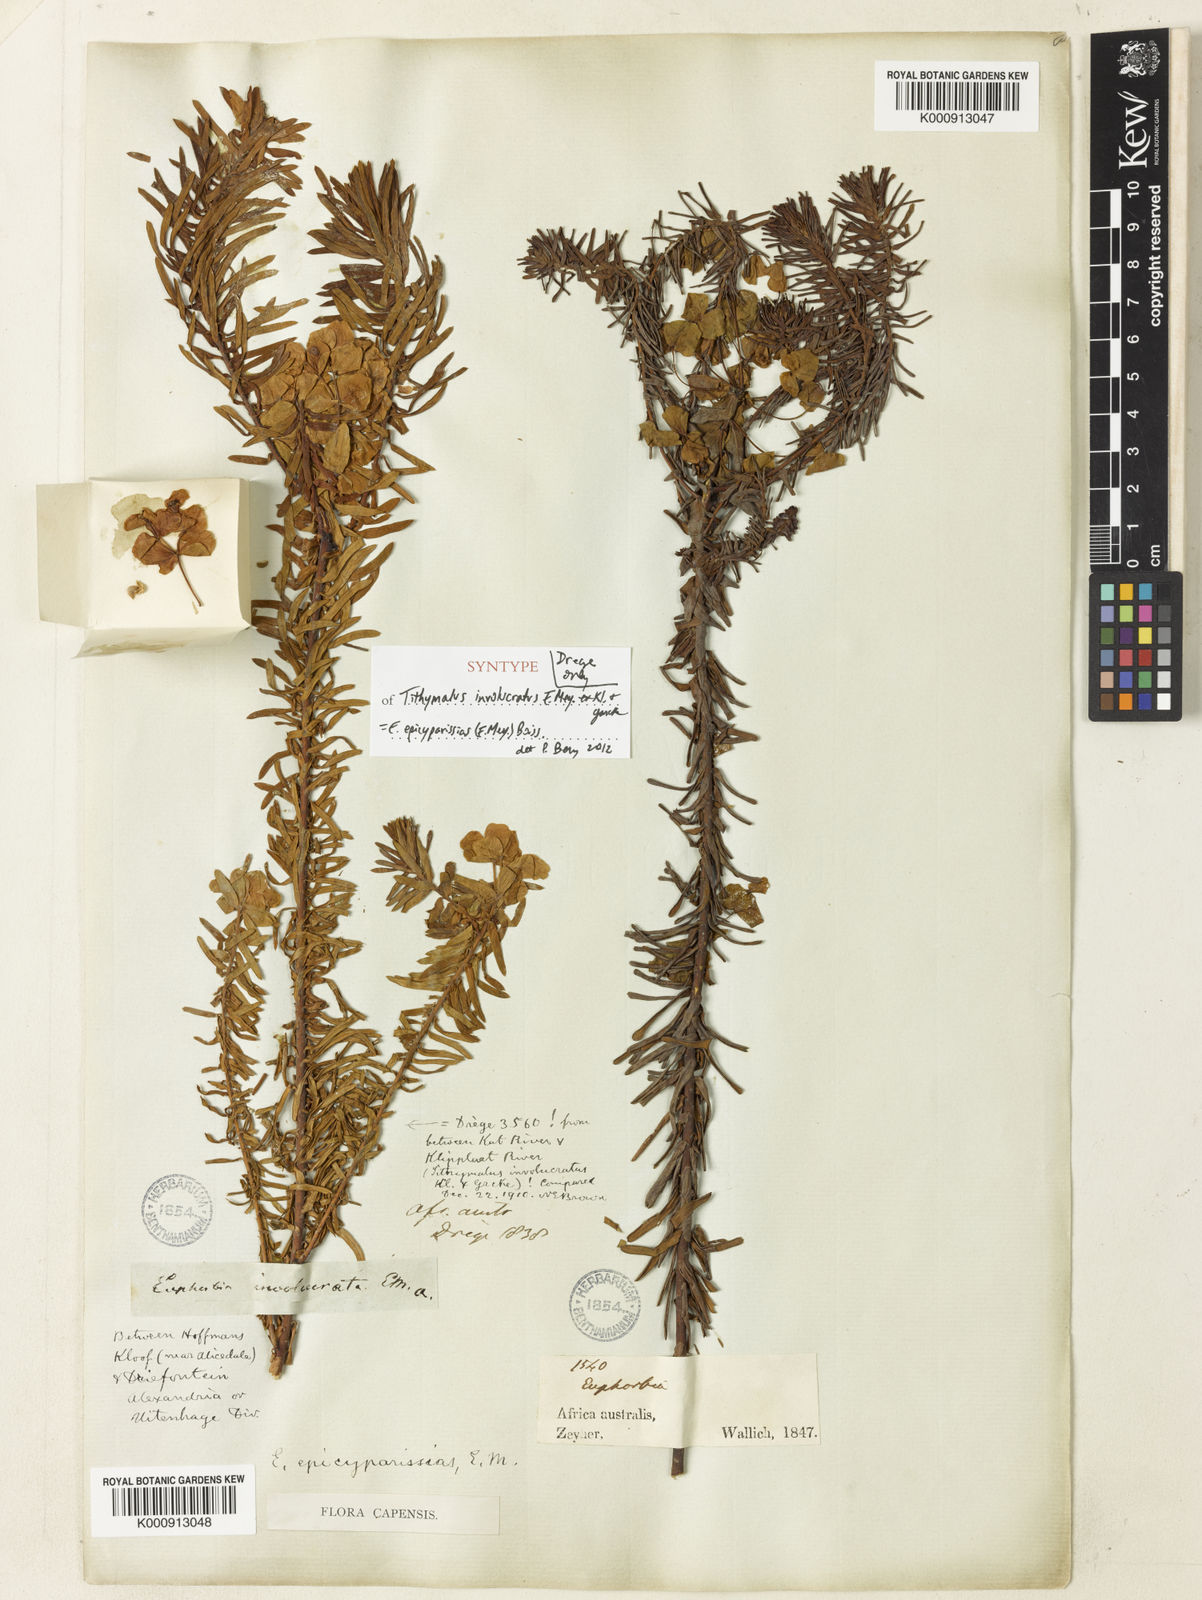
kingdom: Plantae
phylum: Tracheophyta
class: Magnoliopsida
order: Malpighiales
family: Euphorbiaceae
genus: Euphorbia
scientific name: Euphorbia natalensis
